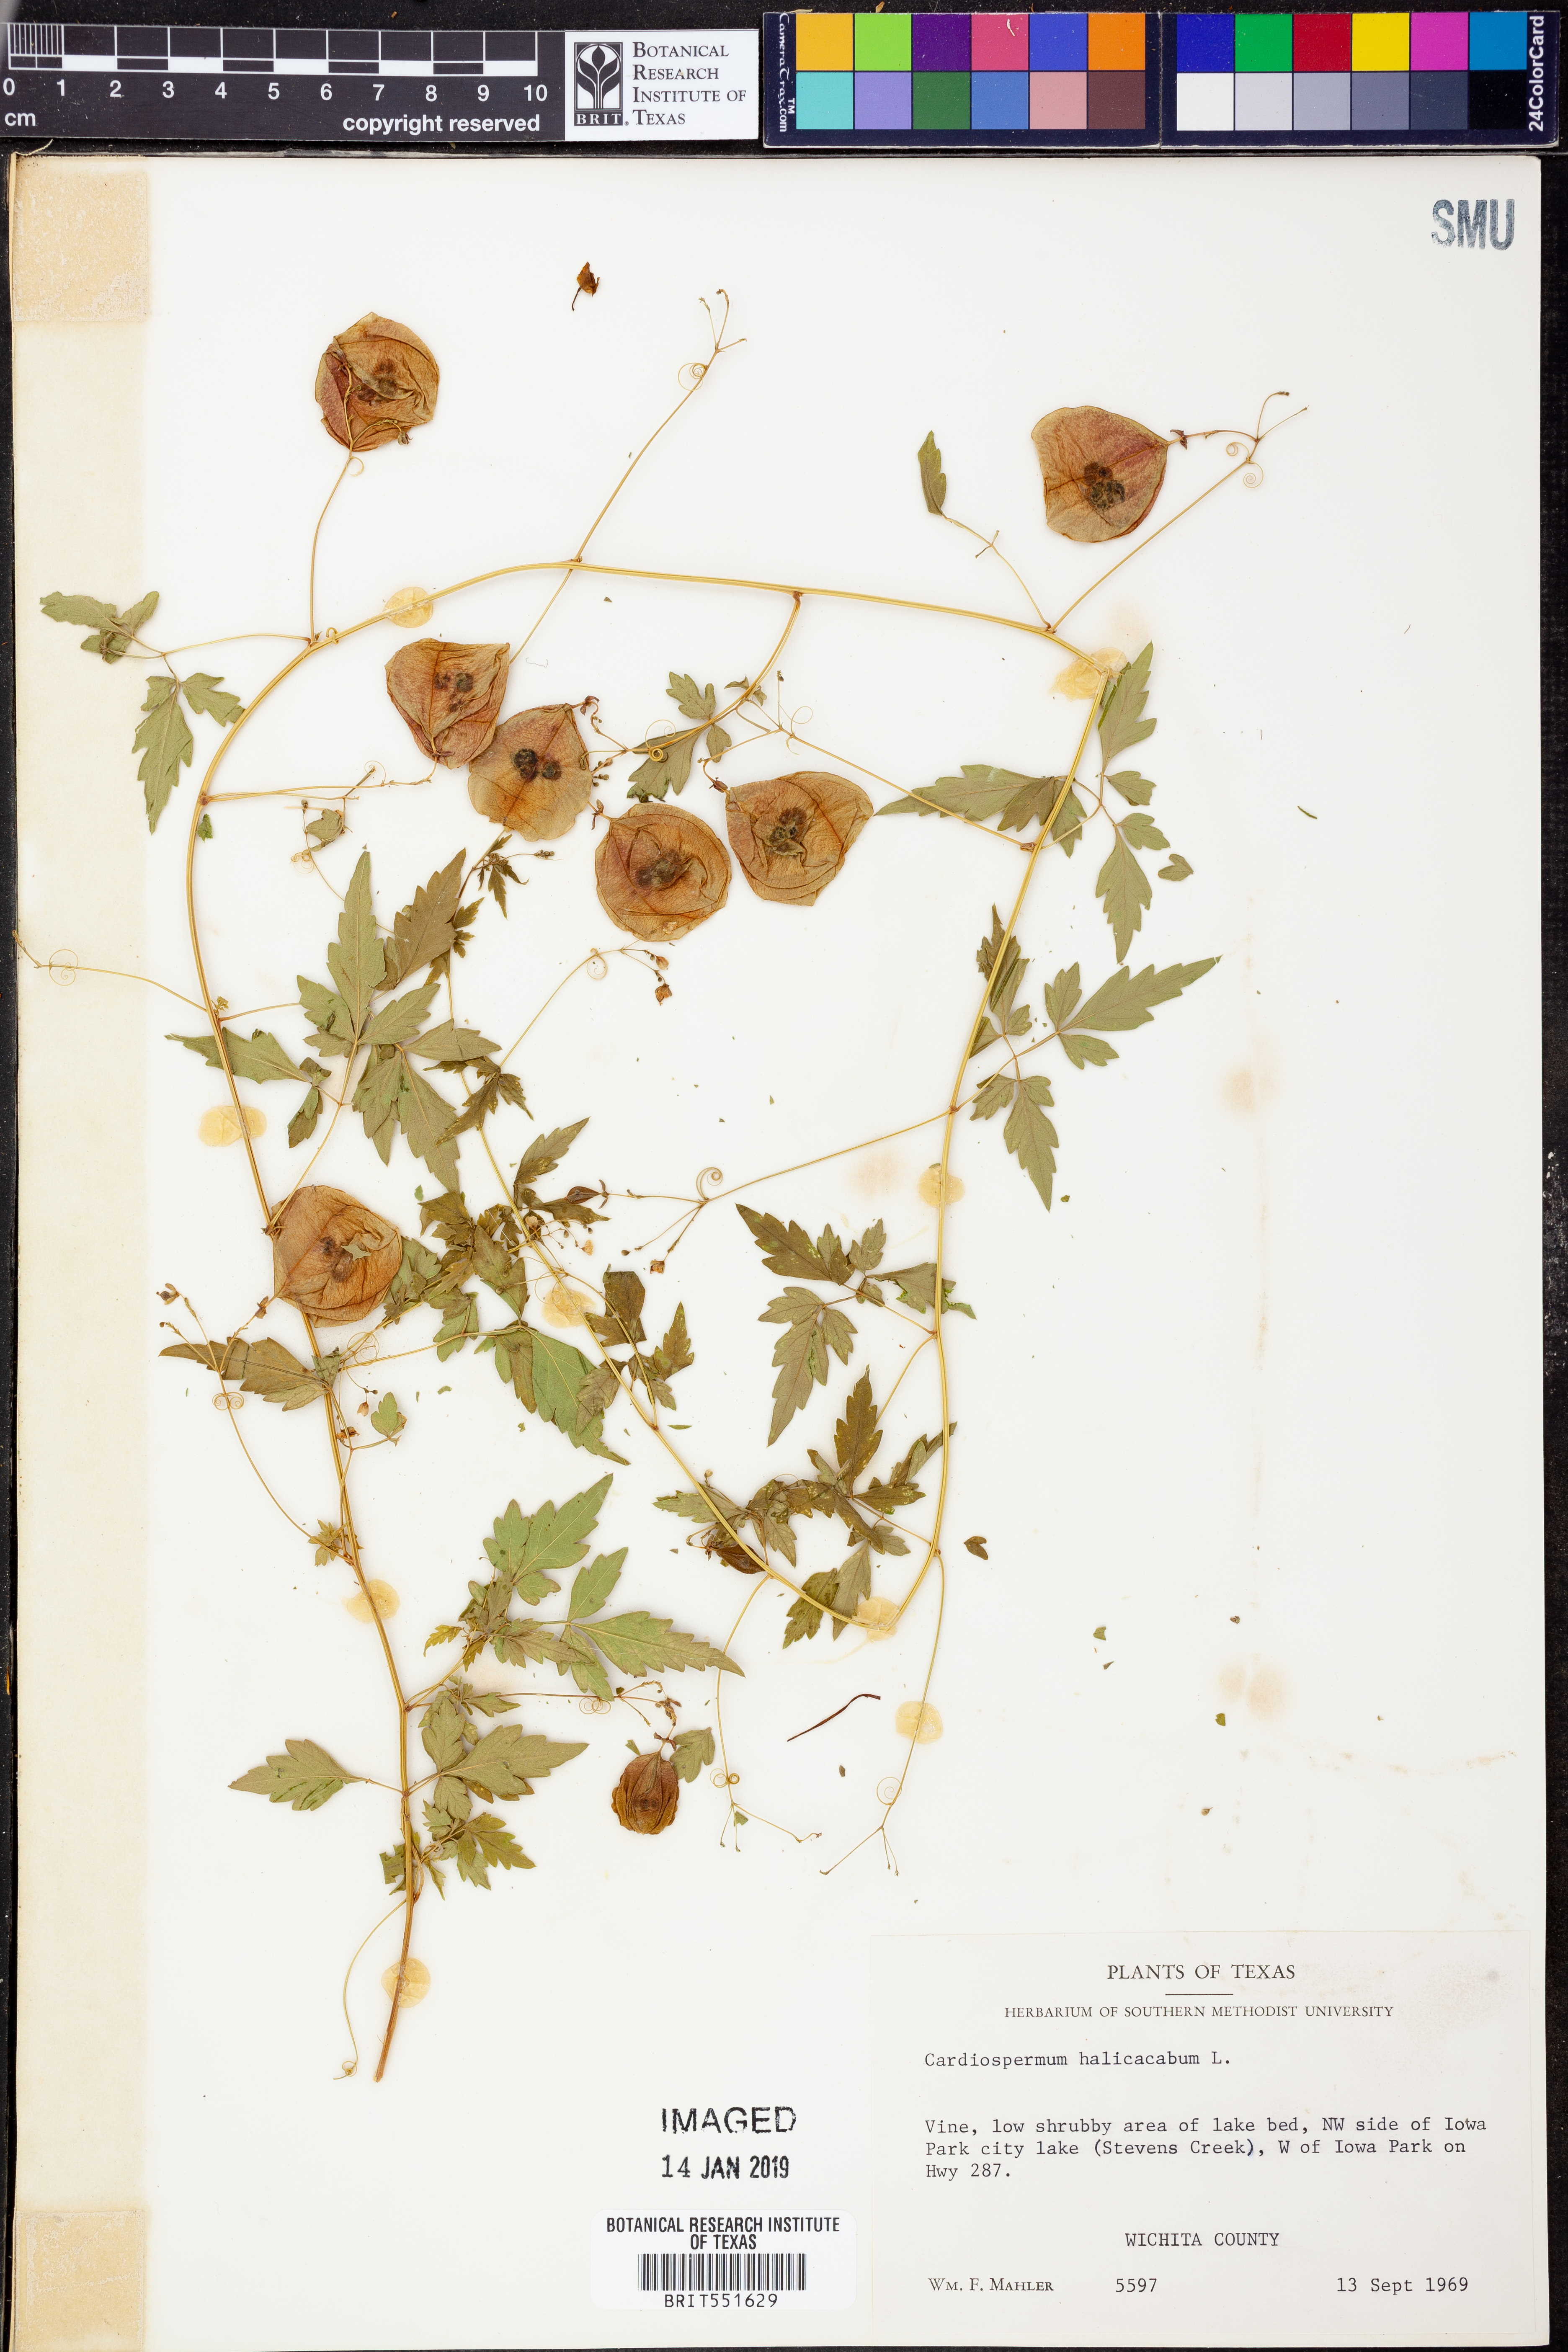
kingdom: Plantae
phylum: Tracheophyta
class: Magnoliopsida
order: Sapindales
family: Sapindaceae
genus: Cardiospermum
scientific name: Cardiospermum halicacabum
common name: Balloon vine
